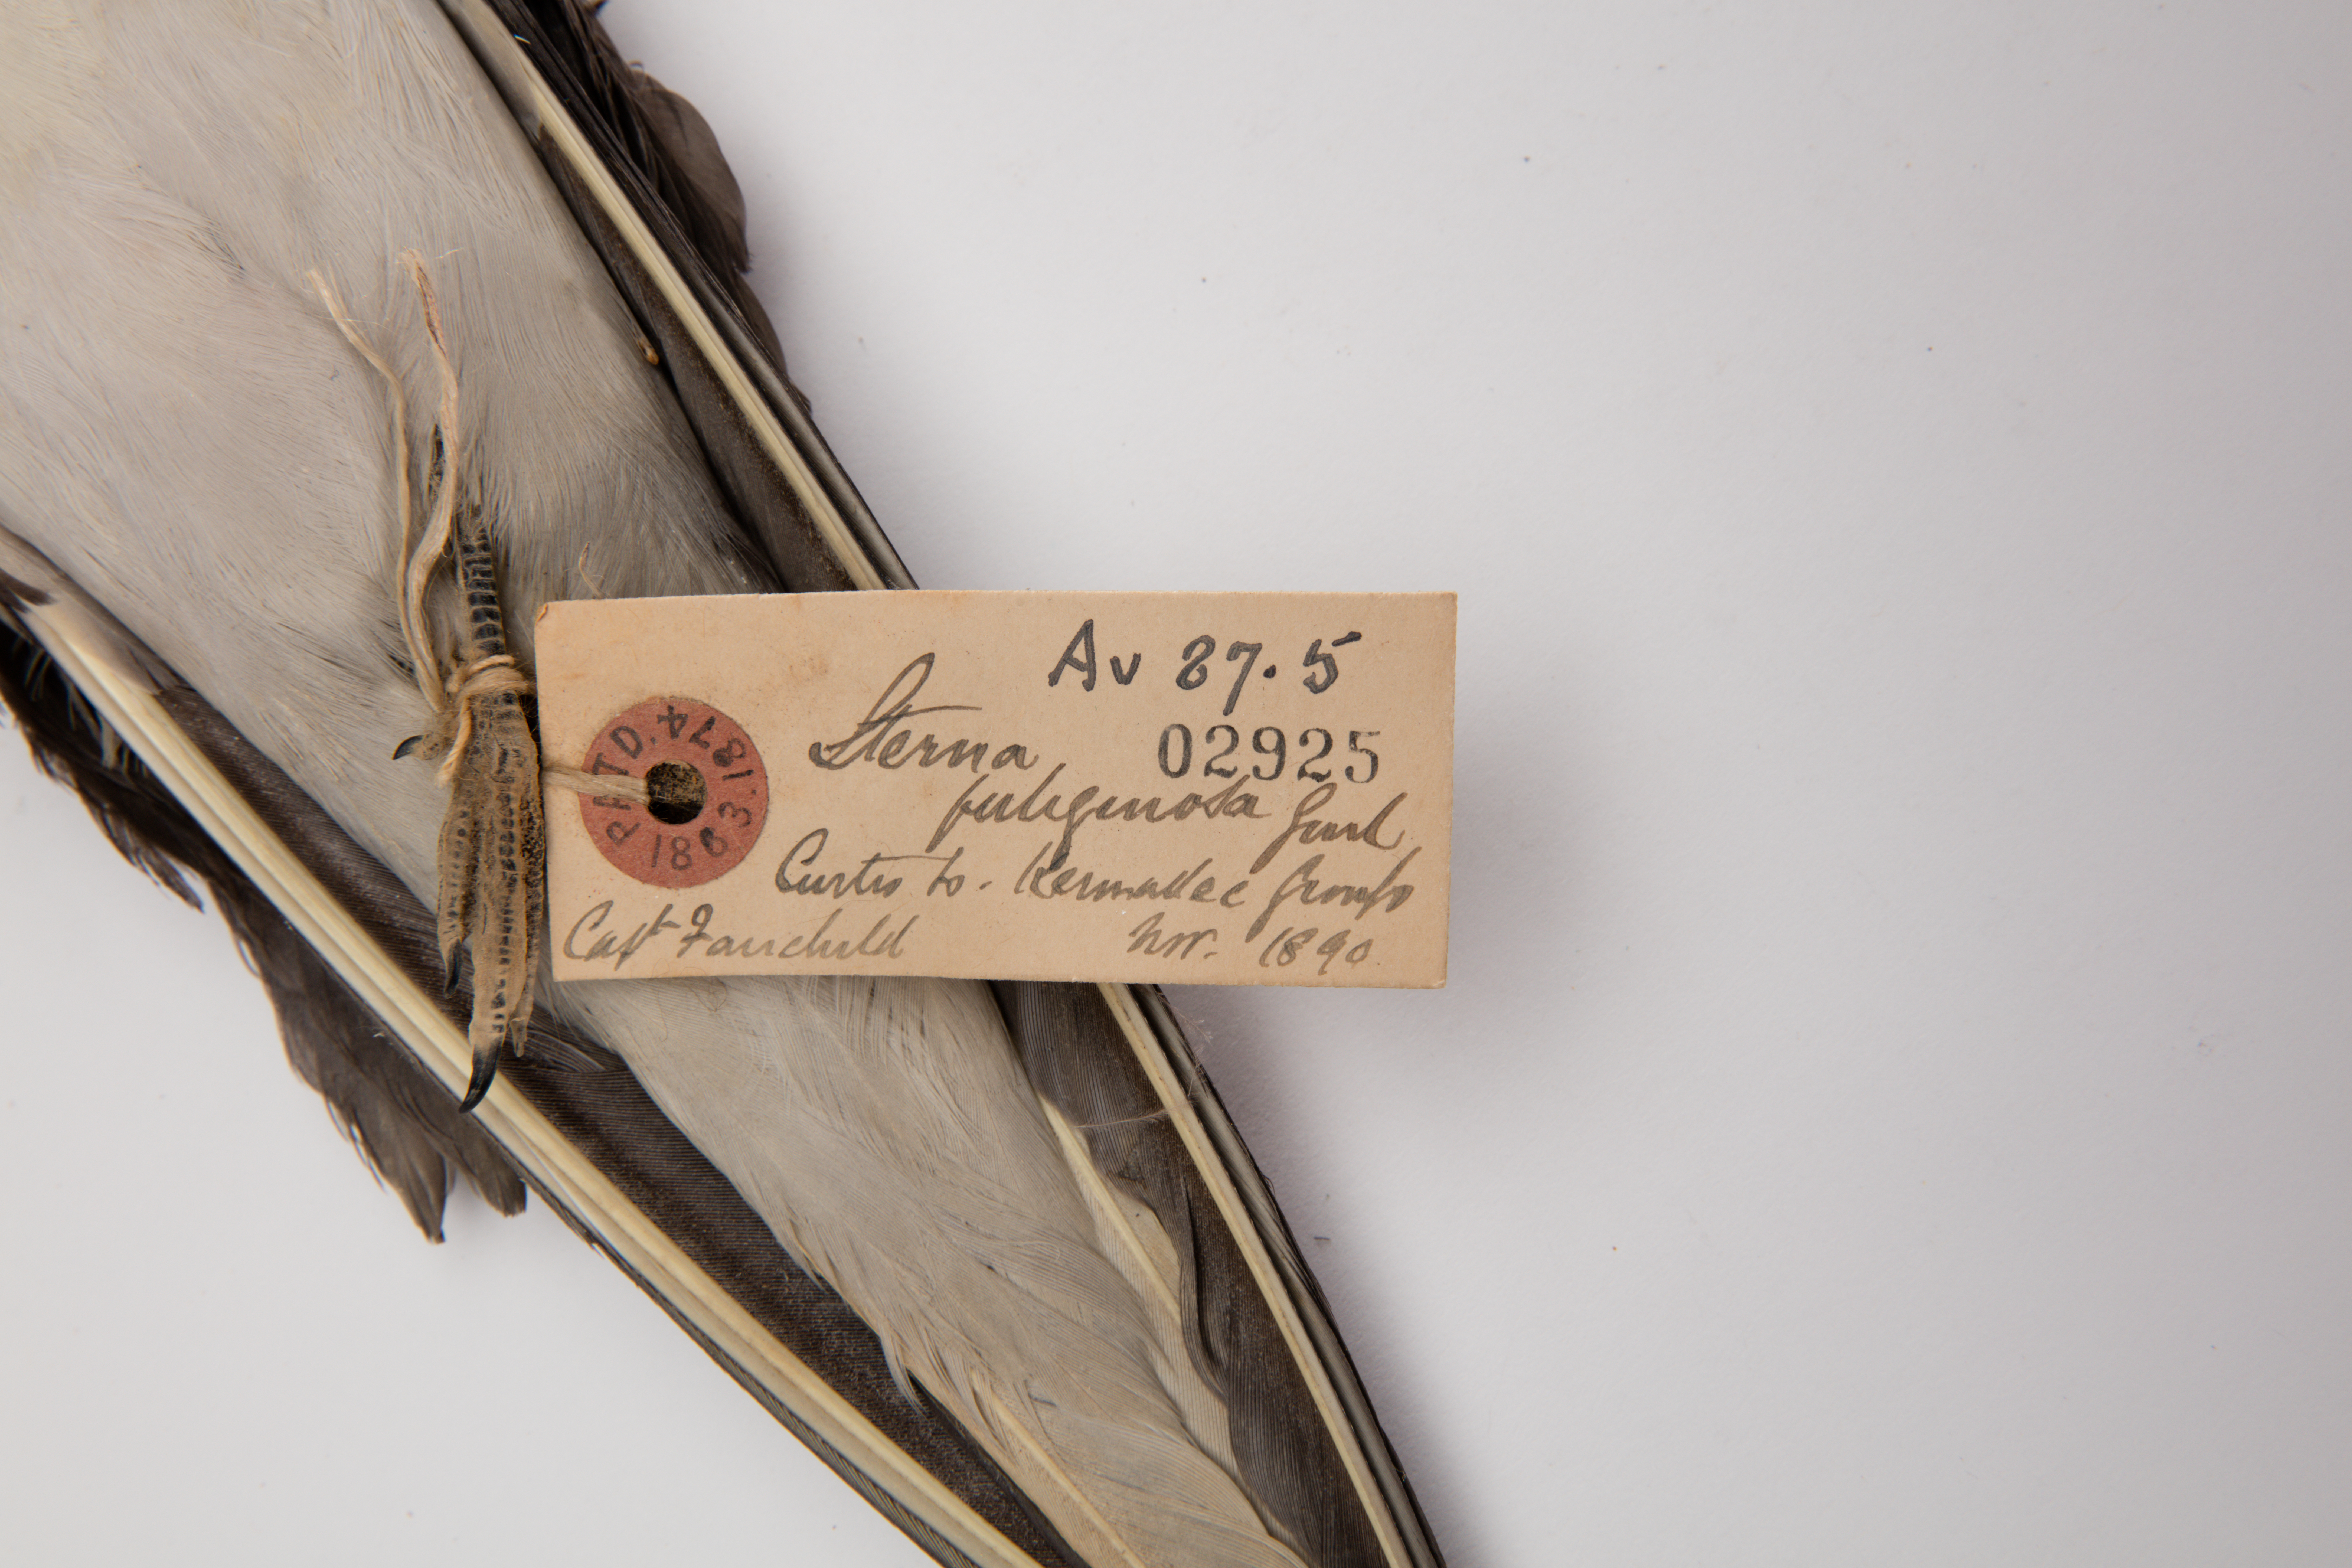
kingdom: Animalia
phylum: Chordata
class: Aves
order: Charadriiformes
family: Laridae
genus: Onychoprion
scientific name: Onychoprion fuscatus
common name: Sooty tern
